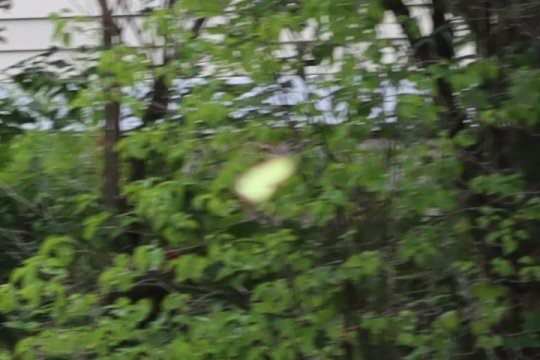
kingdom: Animalia
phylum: Arthropoda
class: Insecta
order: Lepidoptera
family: Pieridae
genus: Colias
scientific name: Colias
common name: Clouded Yellows
